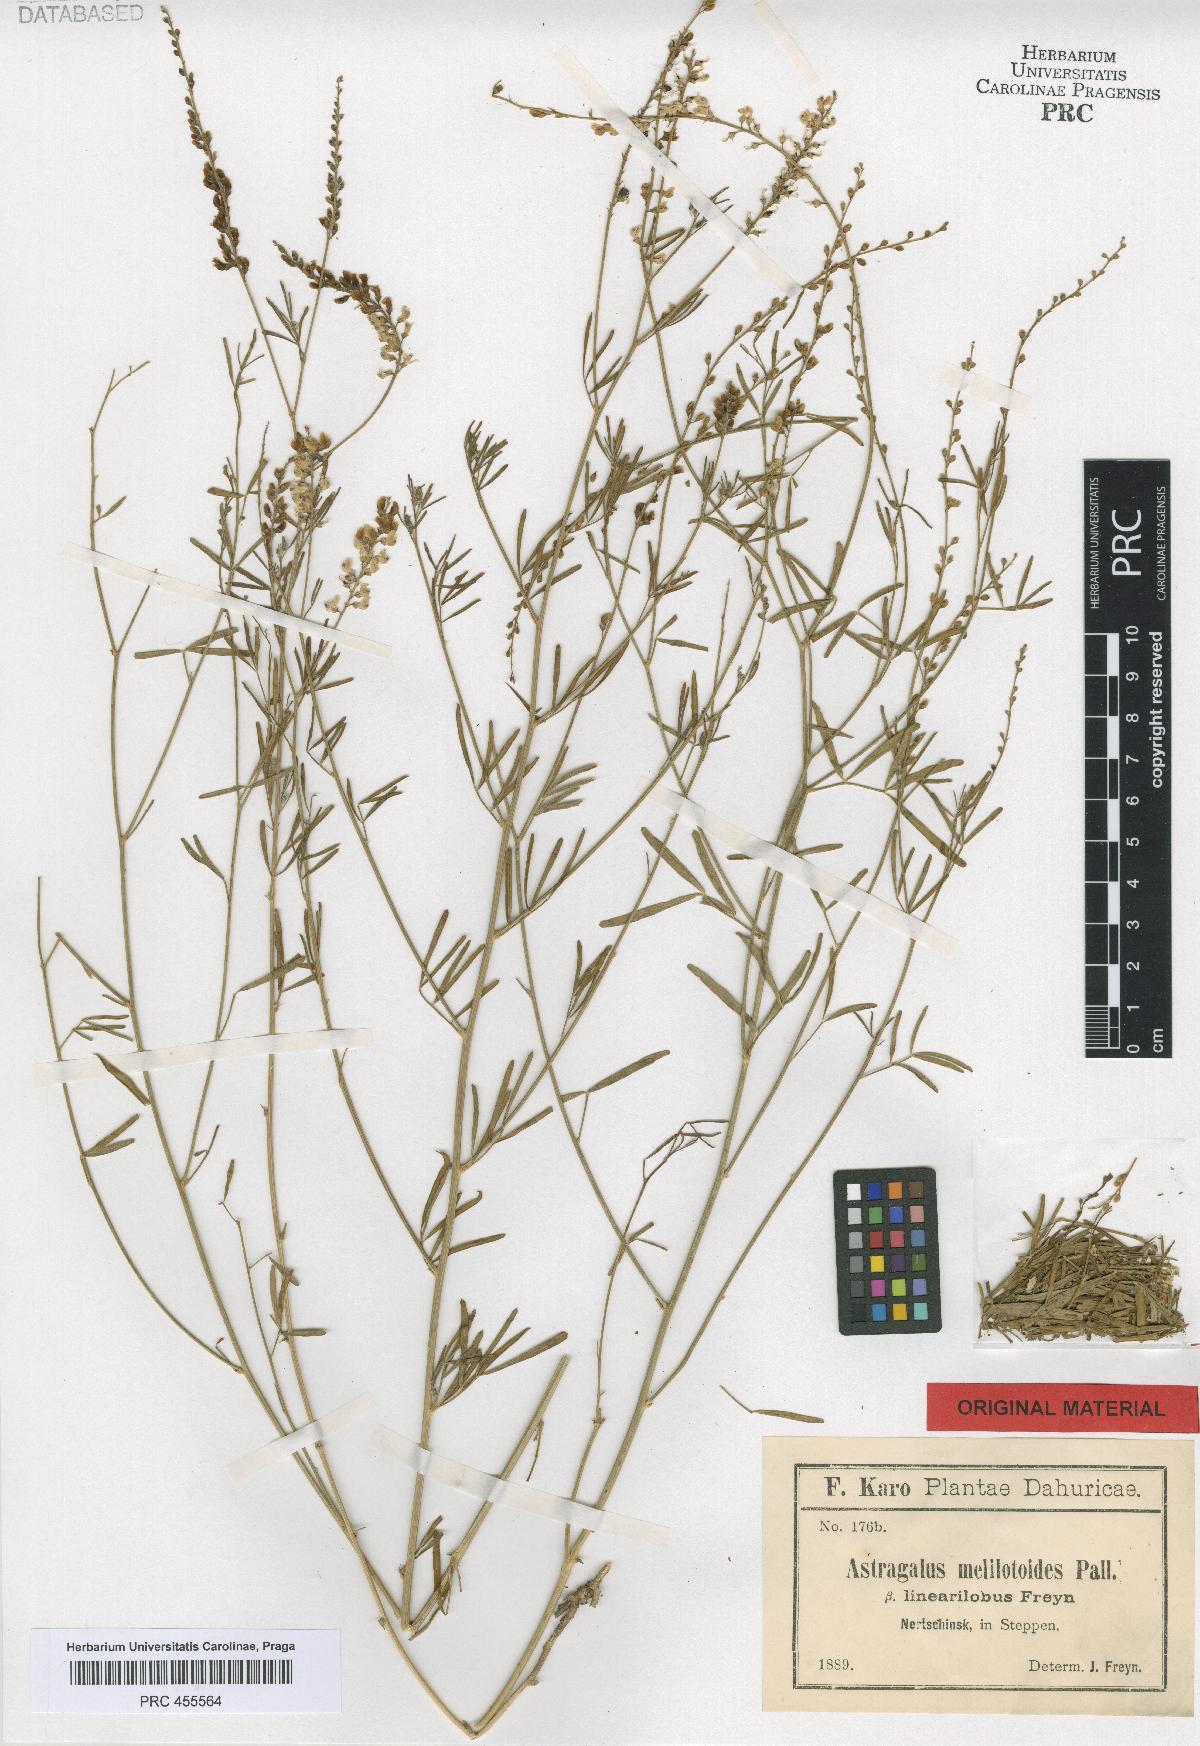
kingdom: Plantae
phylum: Tracheophyta
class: Magnoliopsida
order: Fabales
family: Fabaceae
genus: Astragalus
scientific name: Astragalus melilotoides
